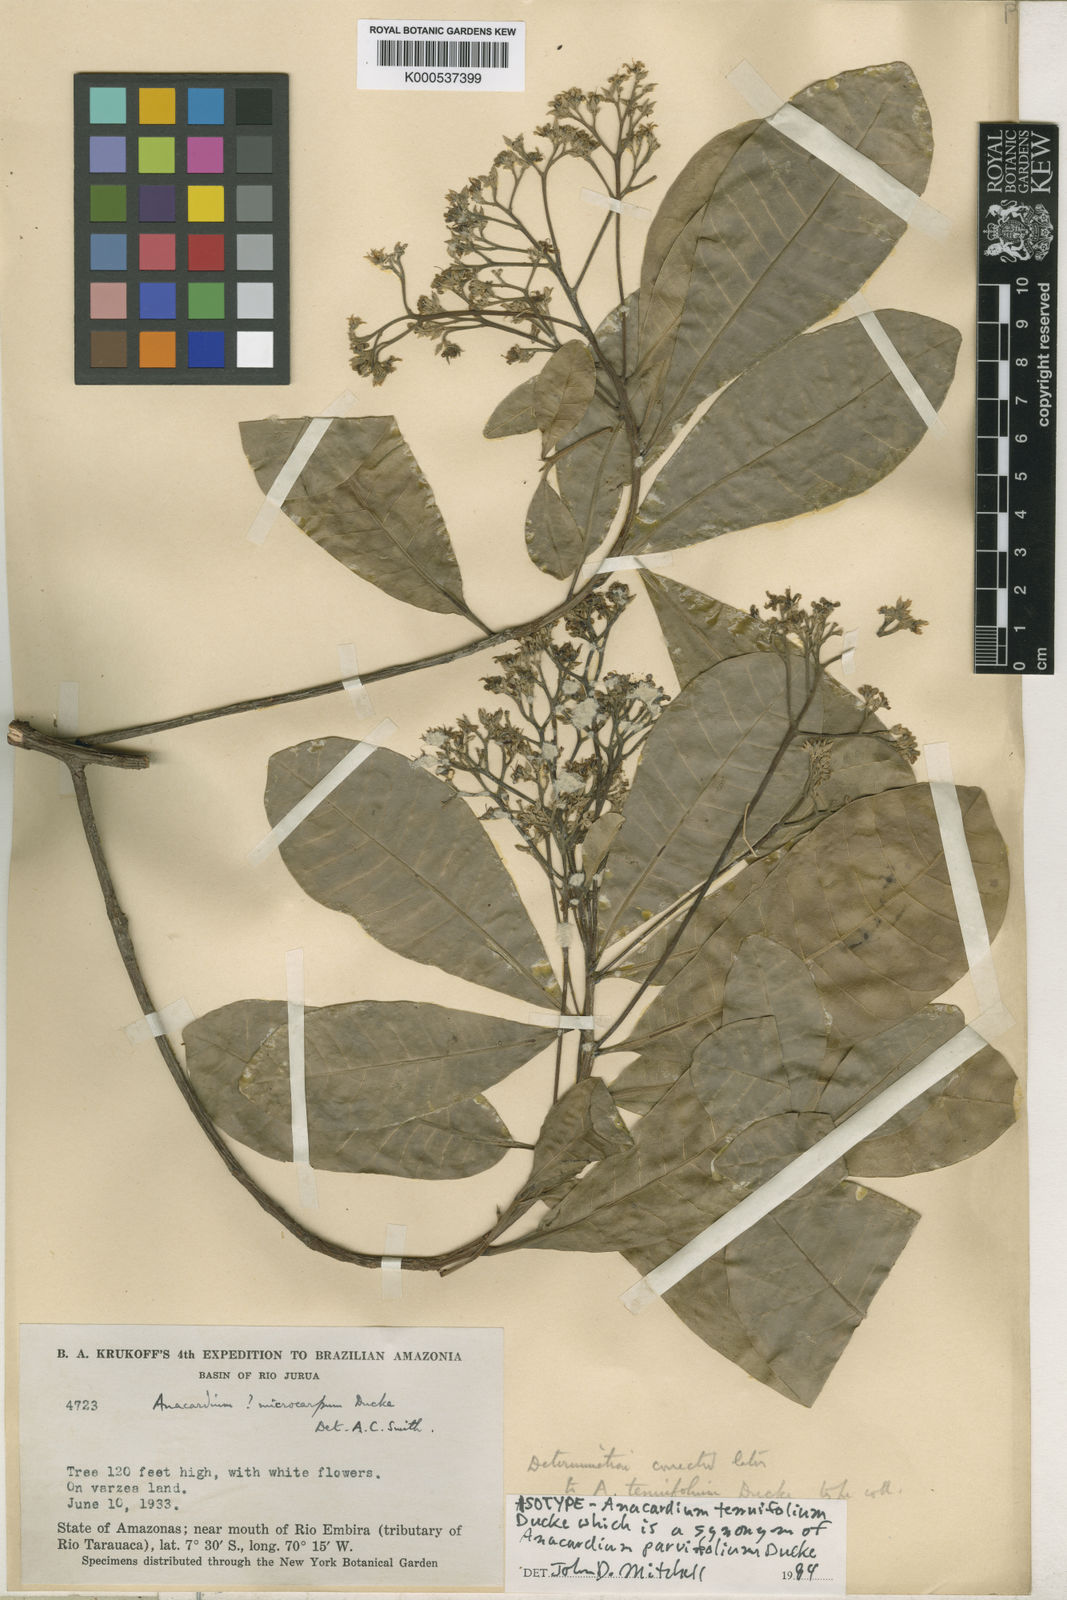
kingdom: Plantae
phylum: Tracheophyta
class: Magnoliopsida
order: Sapindales
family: Anacardiaceae
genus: Anacardium
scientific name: Anacardium parvifolium
